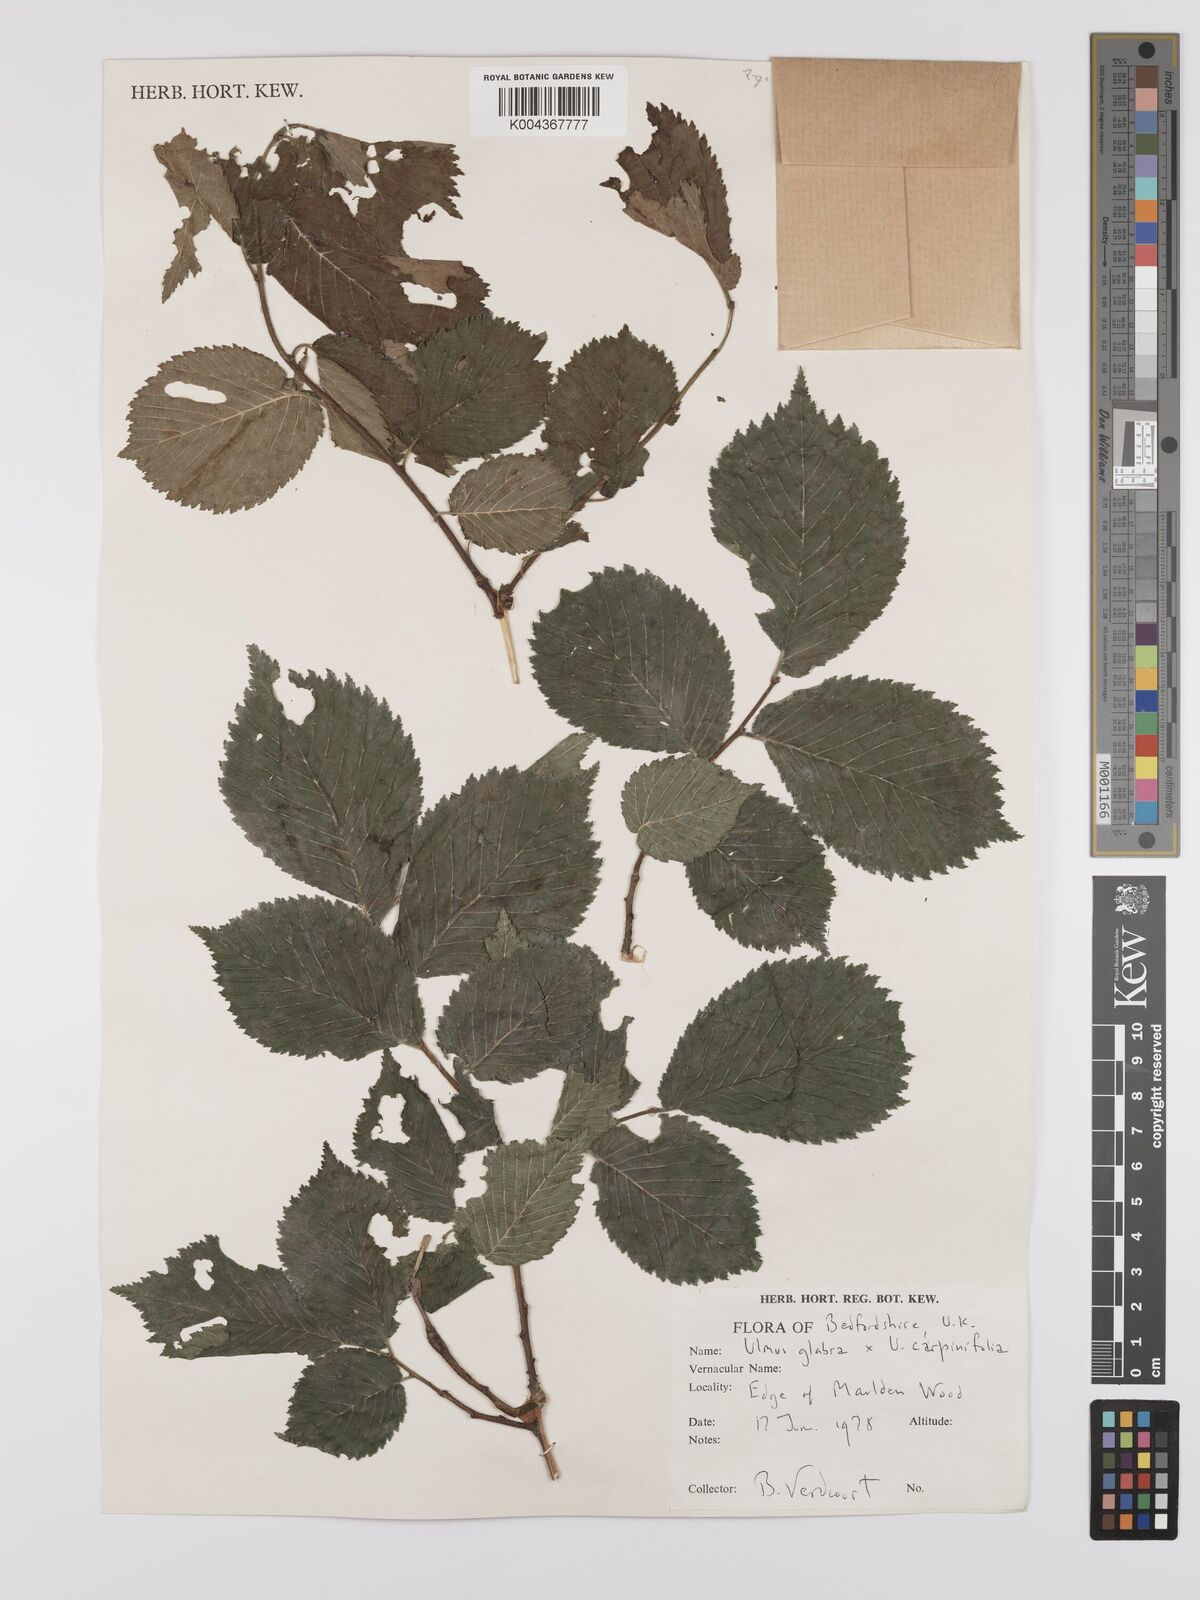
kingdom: Plantae
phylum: Tracheophyta
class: Magnoliopsida
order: Rosales
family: Ulmaceae
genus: Ulmus
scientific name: Ulmus
